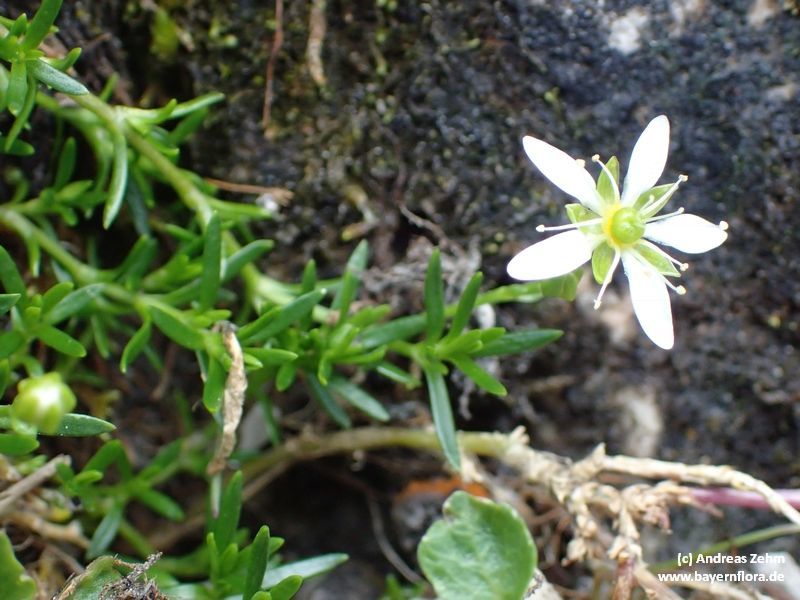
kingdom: Plantae
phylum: Tracheophyta
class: Magnoliopsida
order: Caryophyllales
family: Caryophyllaceae
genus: Moehringia
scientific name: Moehringia ciliata
